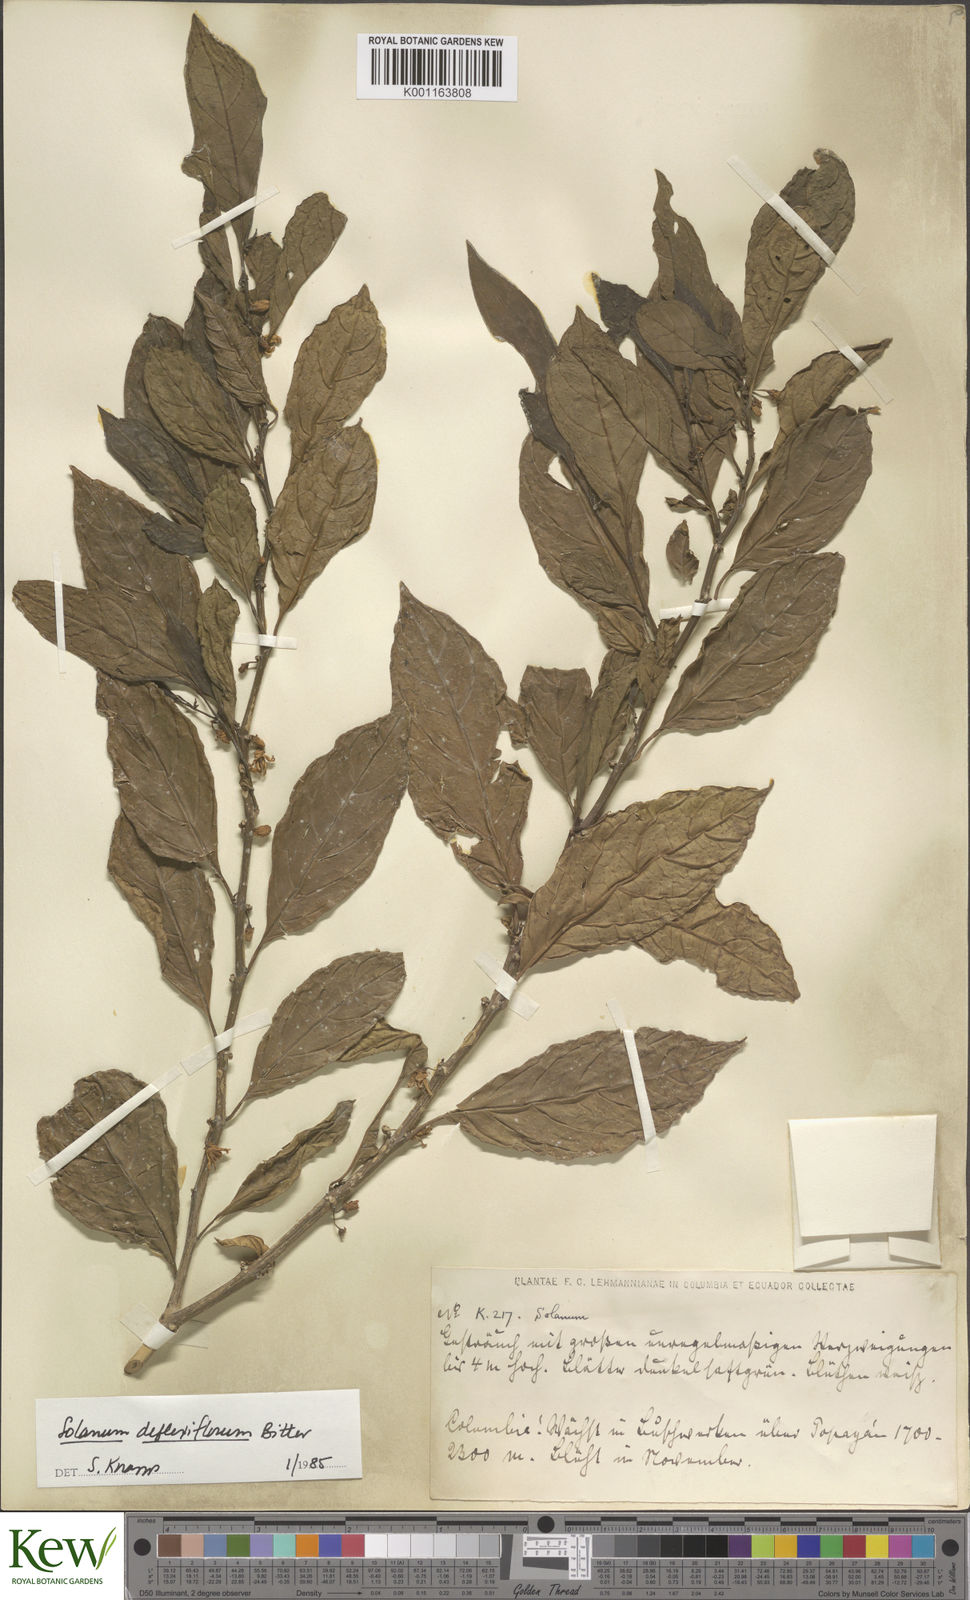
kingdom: Plantae
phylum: Tracheophyta
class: Magnoliopsida
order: Solanales
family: Solanaceae
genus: Solanum
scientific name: Solanum deflexiflorum
